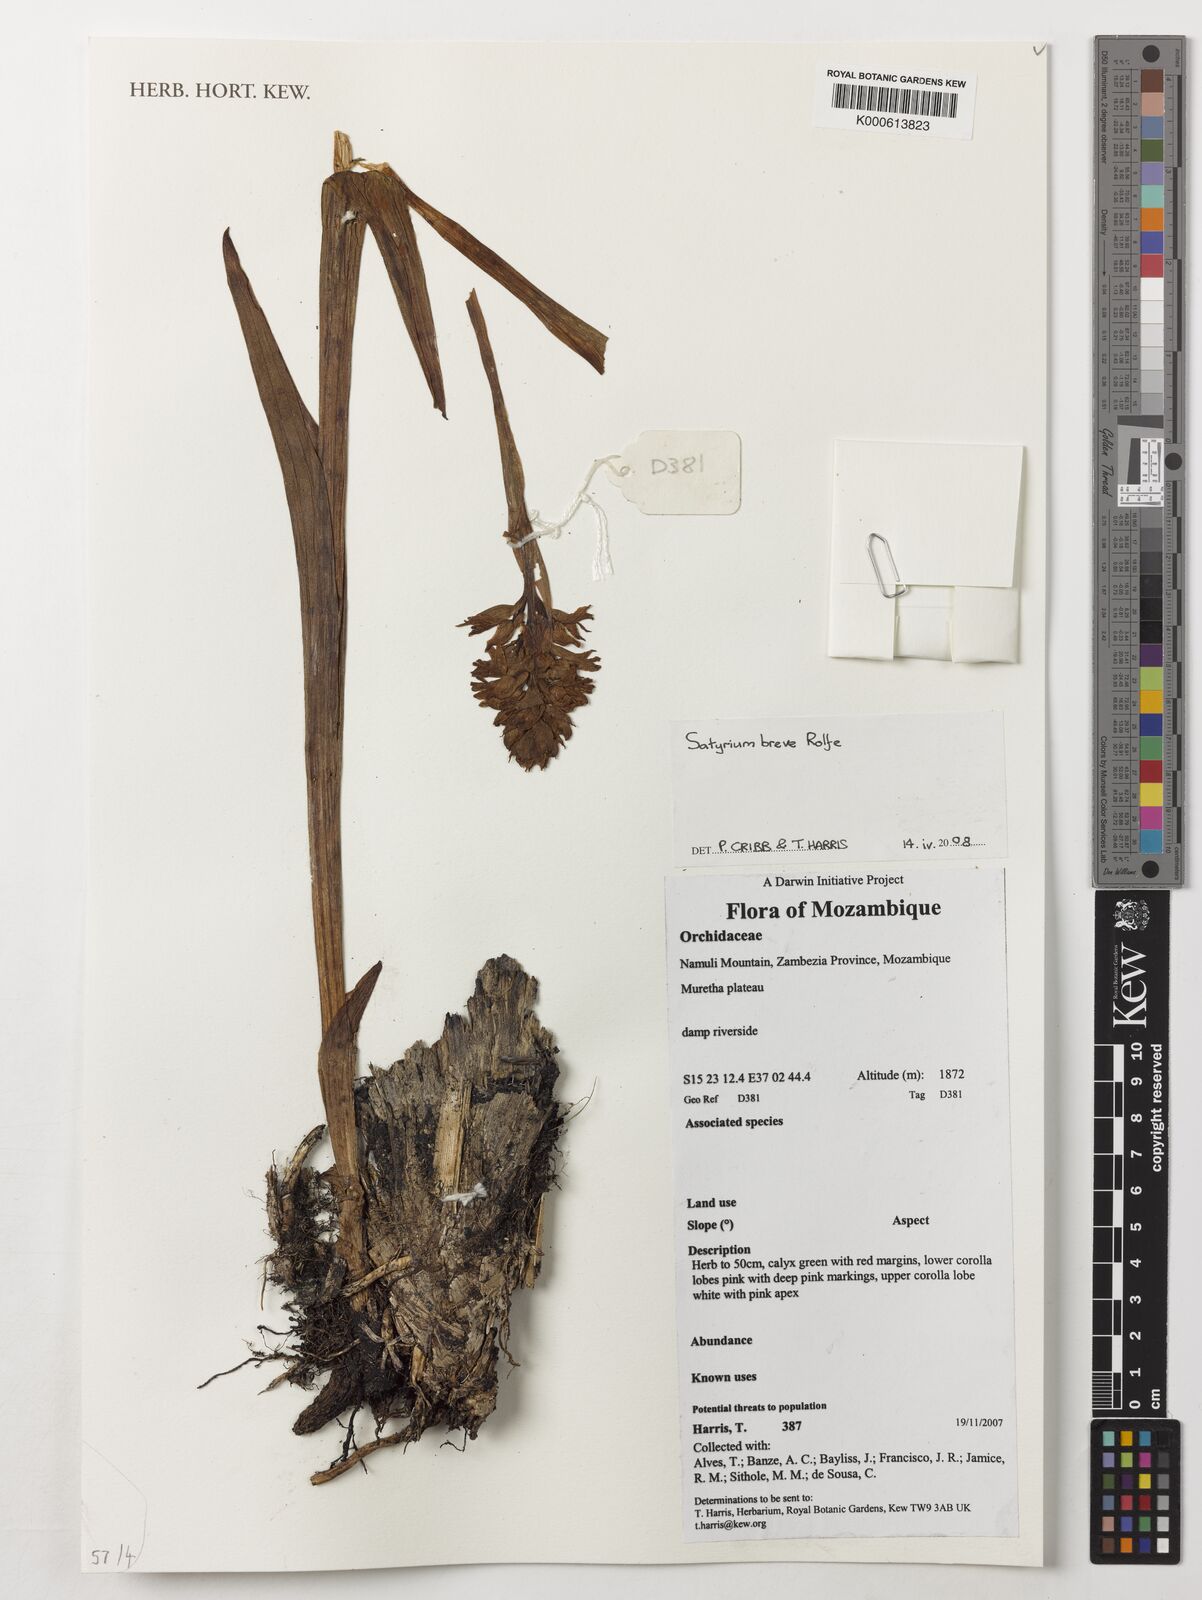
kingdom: Plantae
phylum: Tracheophyta
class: Liliopsida
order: Asparagales
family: Orchidaceae
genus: Satyrium
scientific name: Satyrium breve
